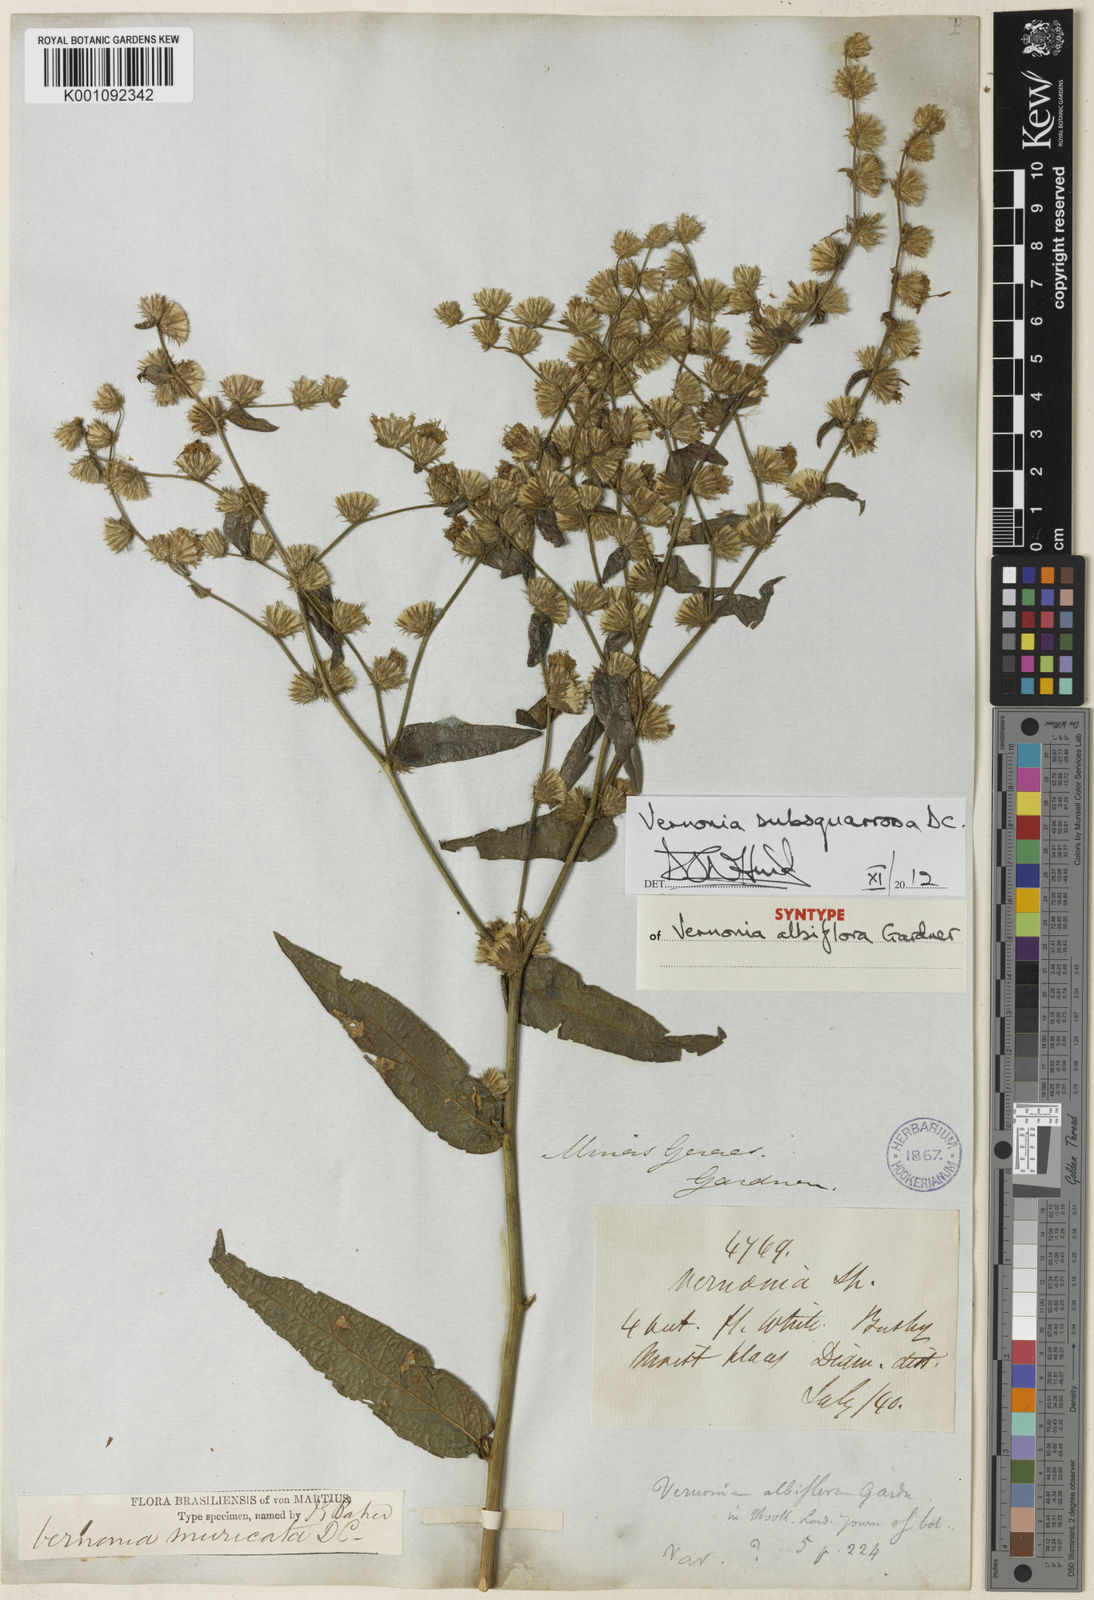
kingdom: Plantae
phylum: Tracheophyta
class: Magnoliopsida
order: Asterales
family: Asteraceae
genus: Lepidaploa
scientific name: Lepidaploa subsquarrosa
